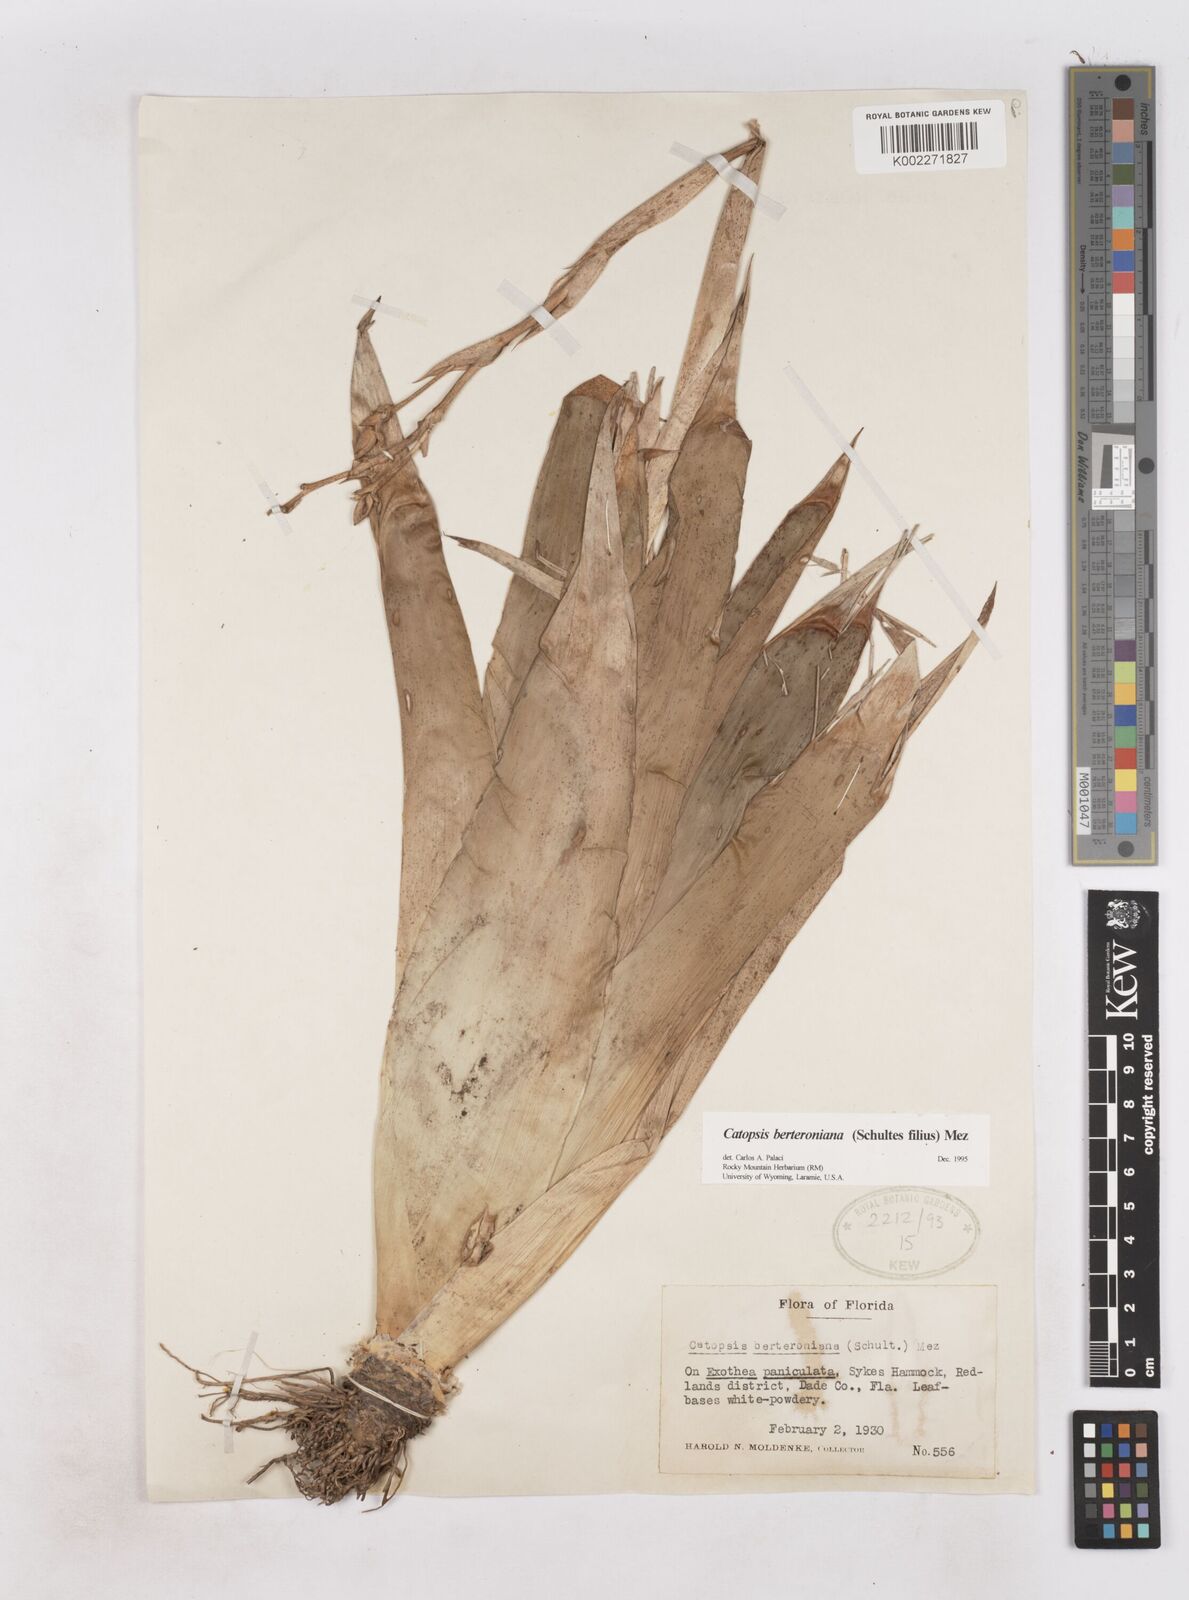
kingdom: Plantae
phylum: Tracheophyta
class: Liliopsida
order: Poales
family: Bromeliaceae
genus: Catopsis
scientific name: Catopsis berteroniana
